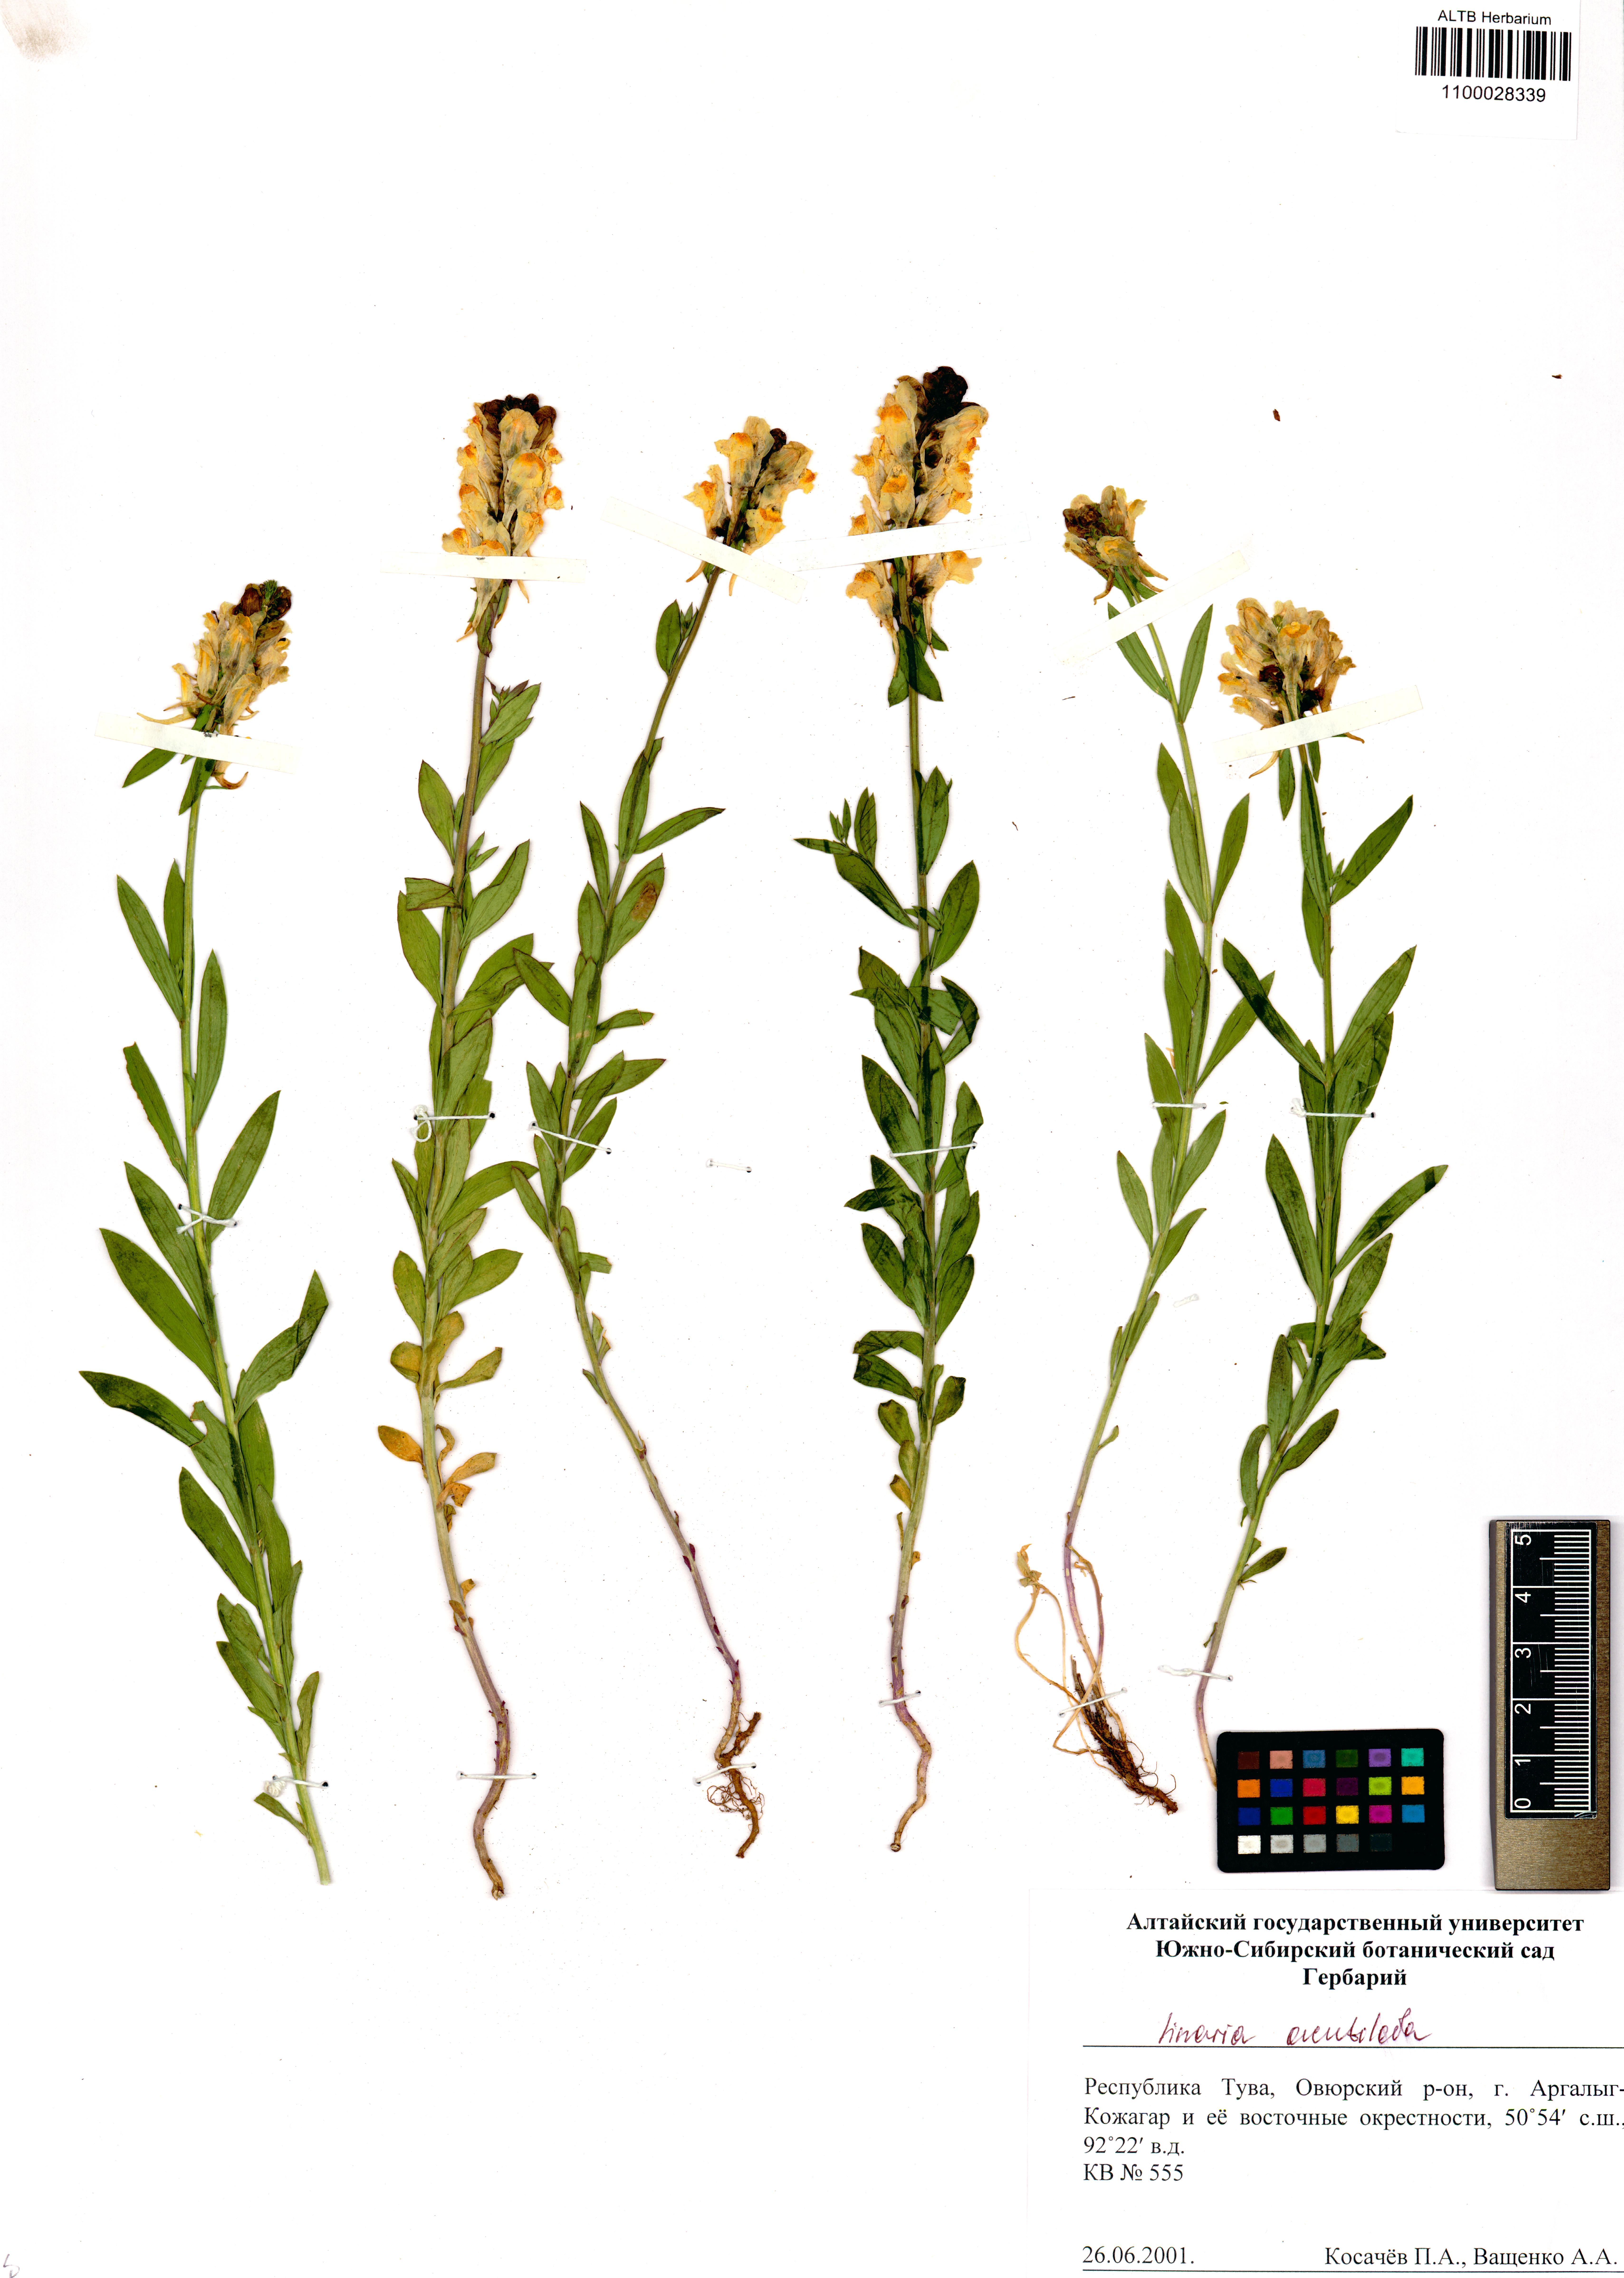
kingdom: Plantae
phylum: Tracheophyta
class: Magnoliopsida
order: Lamiales
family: Plantaginaceae
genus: Linaria
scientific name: Linaria acutiloba
